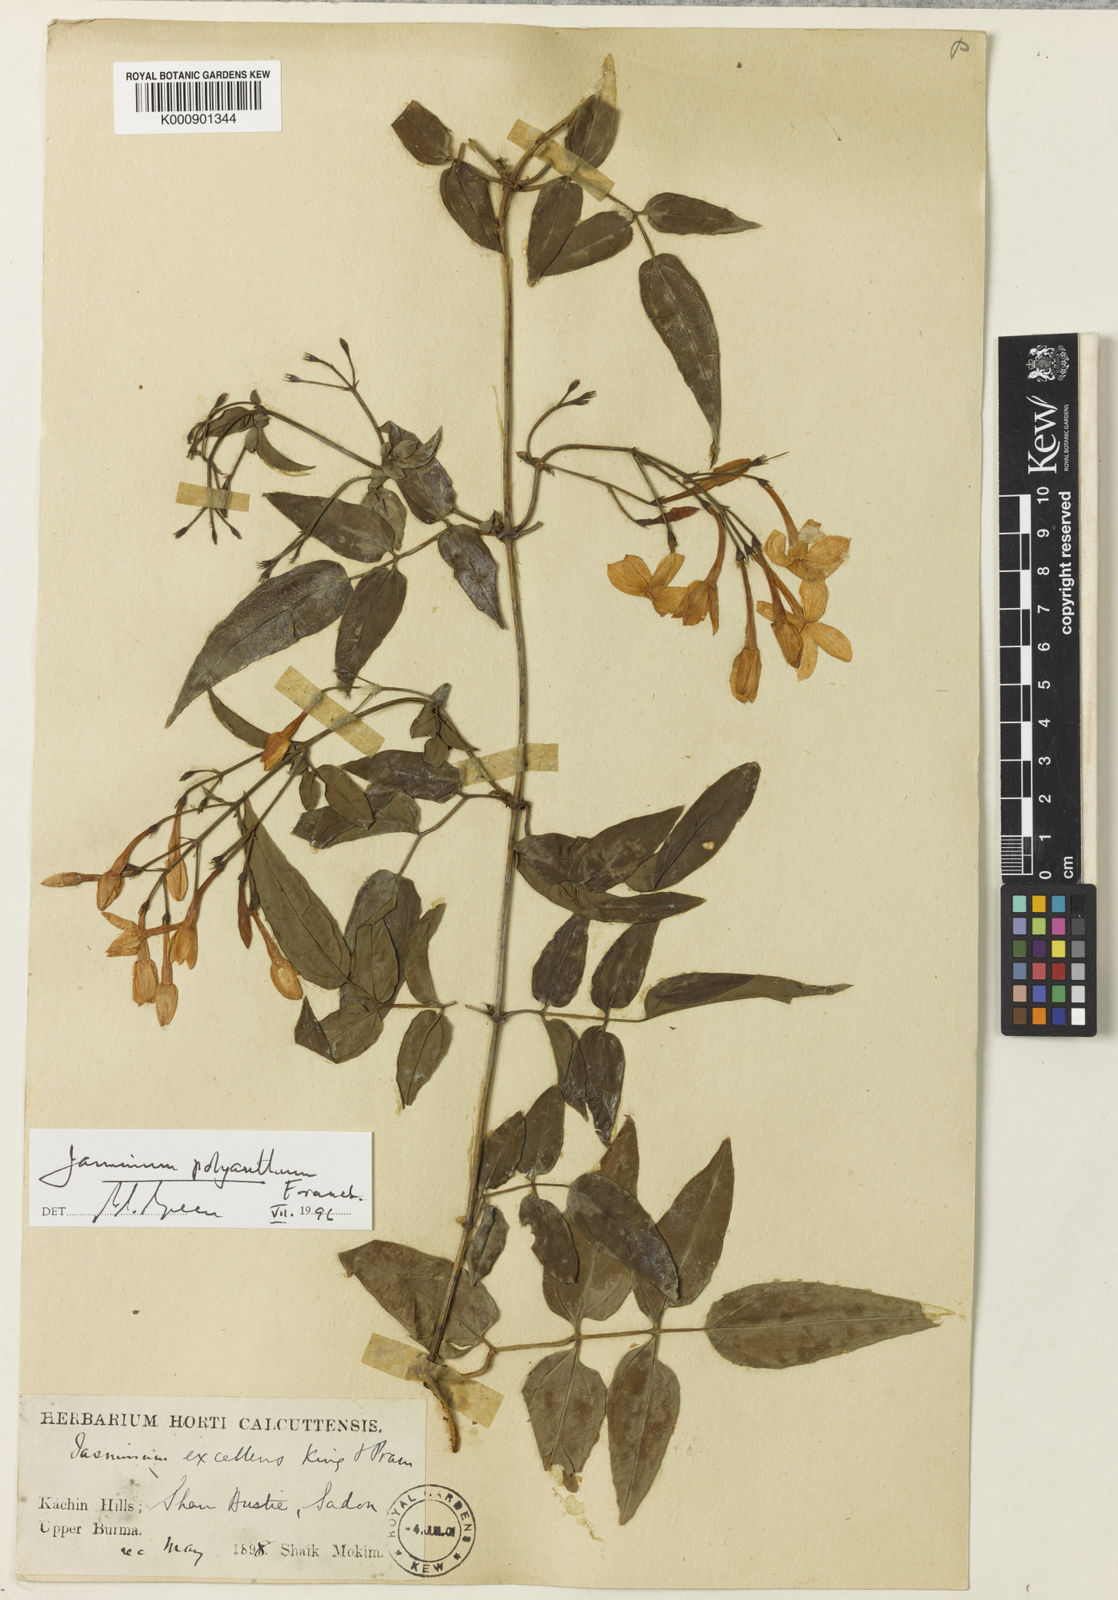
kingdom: Plantae
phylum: Tracheophyta
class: Magnoliopsida
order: Lamiales
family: Oleaceae
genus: Jasminum
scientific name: Jasminum polyanthum
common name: Pink jasmine
